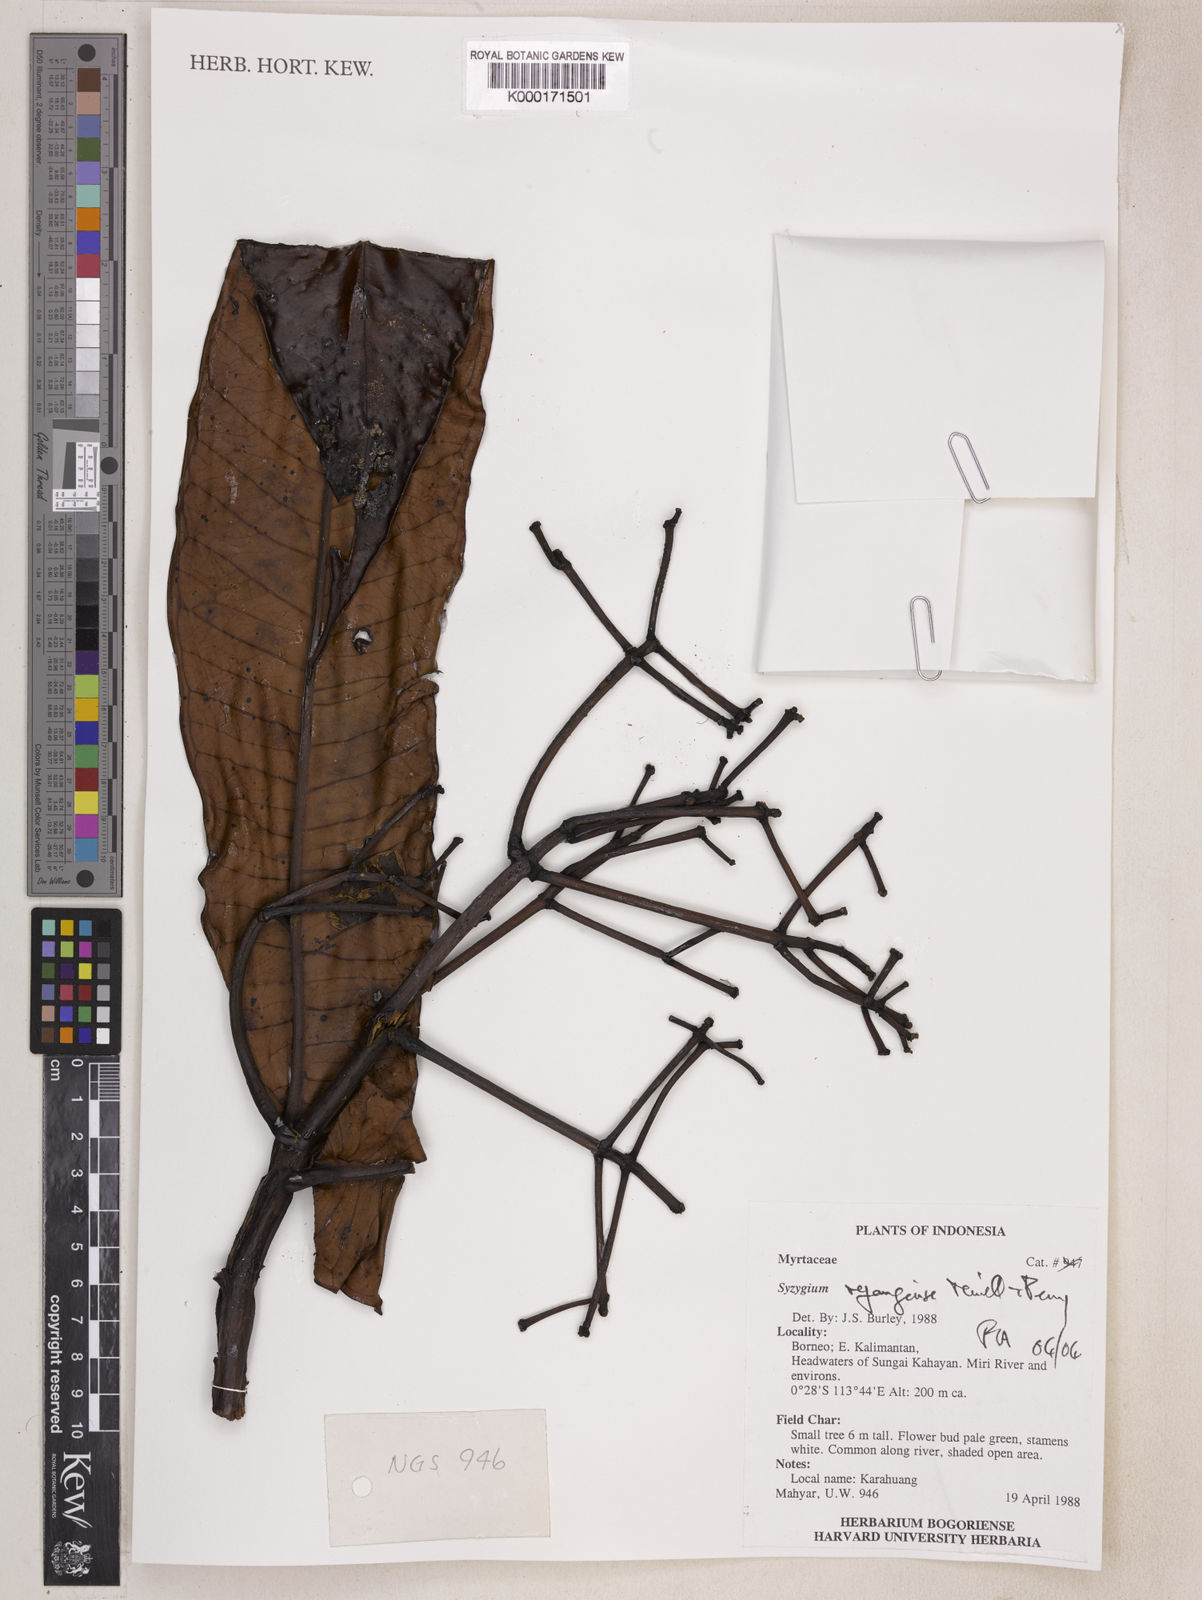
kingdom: Plantae
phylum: Tracheophyta
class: Magnoliopsida
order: Myrtales
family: Myrtaceae
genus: Syzygium
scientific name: Syzygium rejangense
